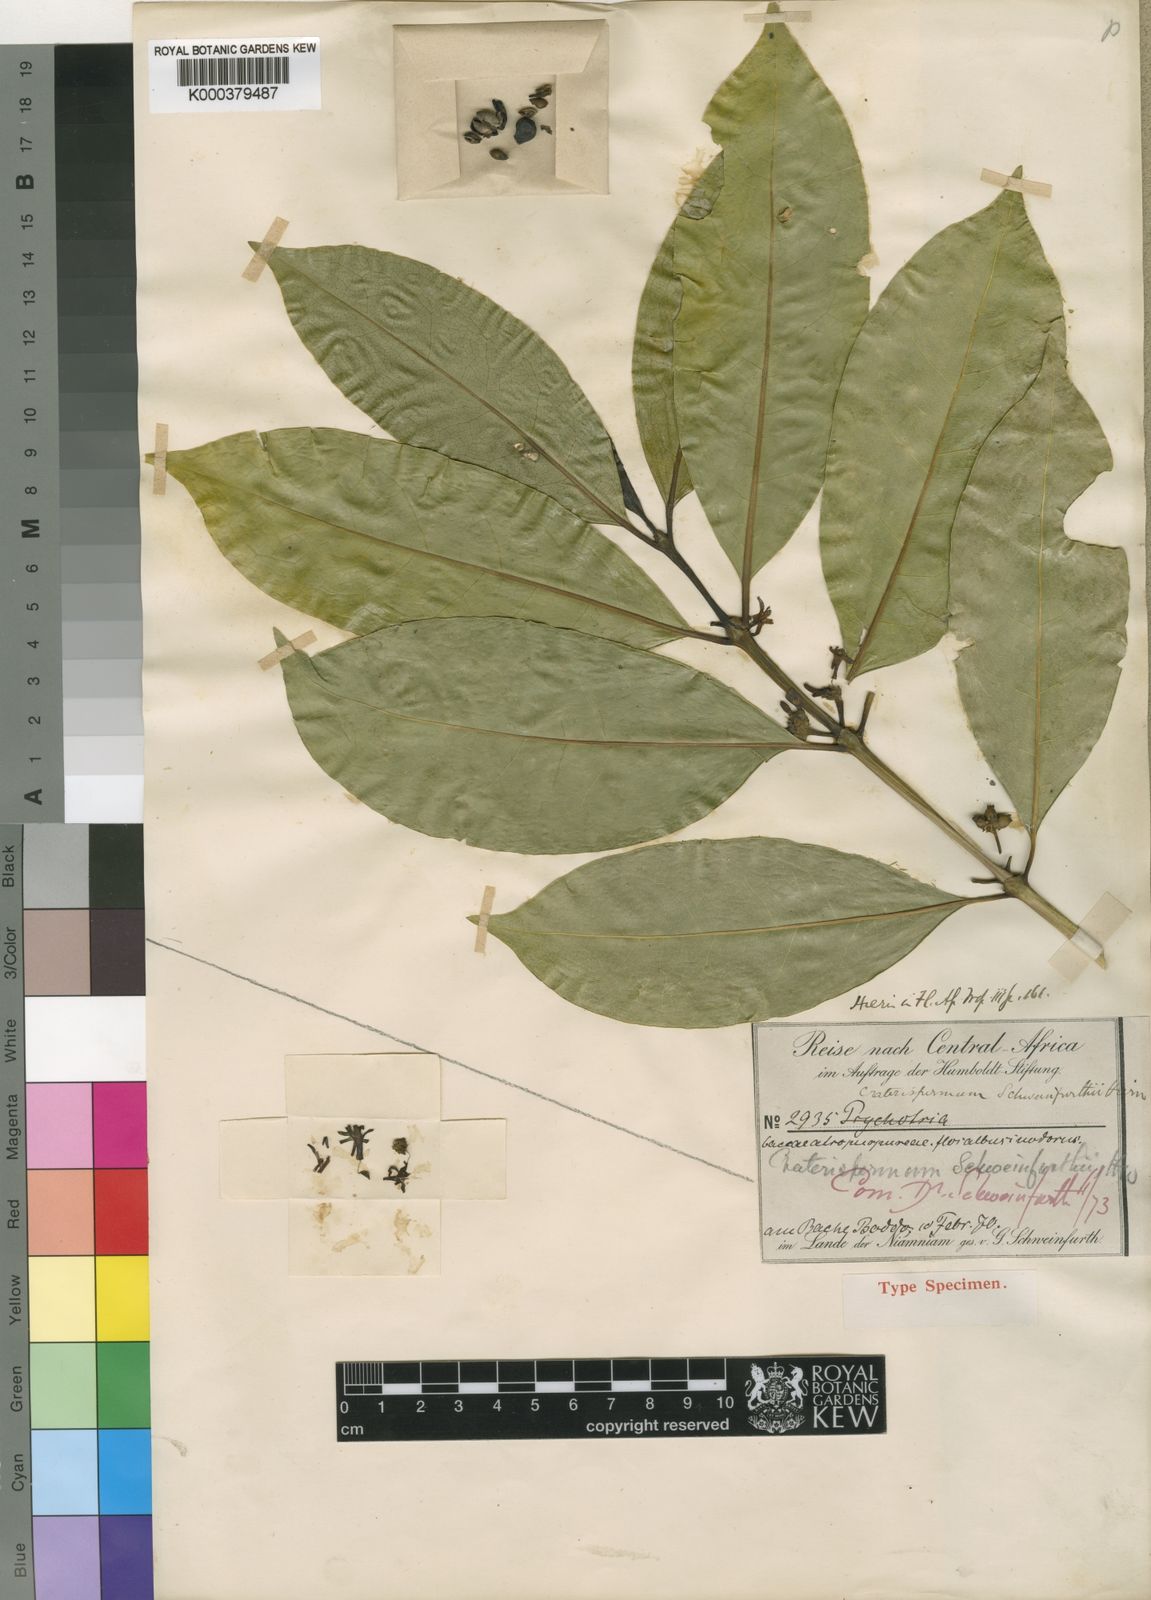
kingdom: Plantae
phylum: Tracheophyta
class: Magnoliopsida
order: Gentianales
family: Rubiaceae
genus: Craterispermum
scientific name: Craterispermum schweinfurthii
